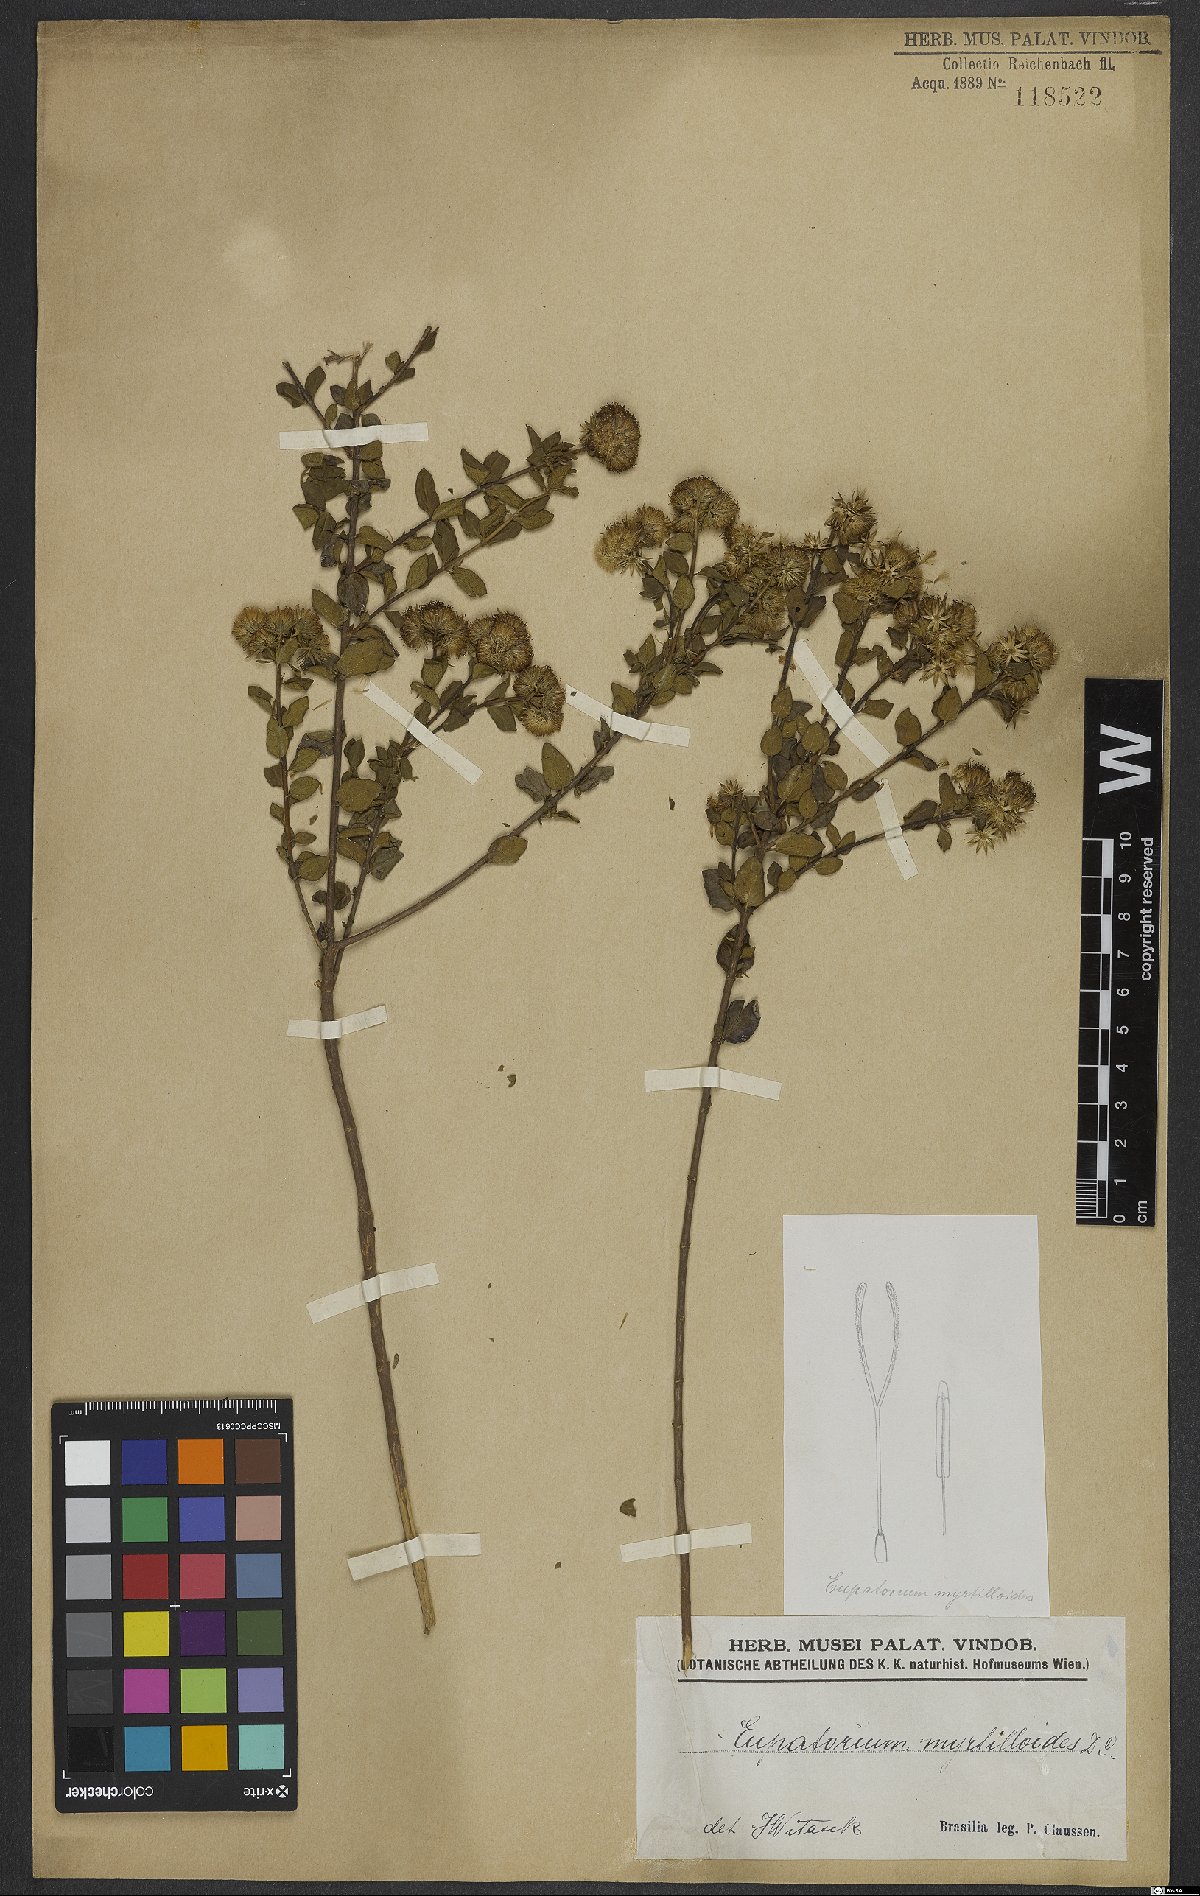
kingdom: Plantae
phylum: Tracheophyta
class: Magnoliopsida
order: Asterales
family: Asteraceae
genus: Koanophyllon
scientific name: Koanophyllon myrtilloides
